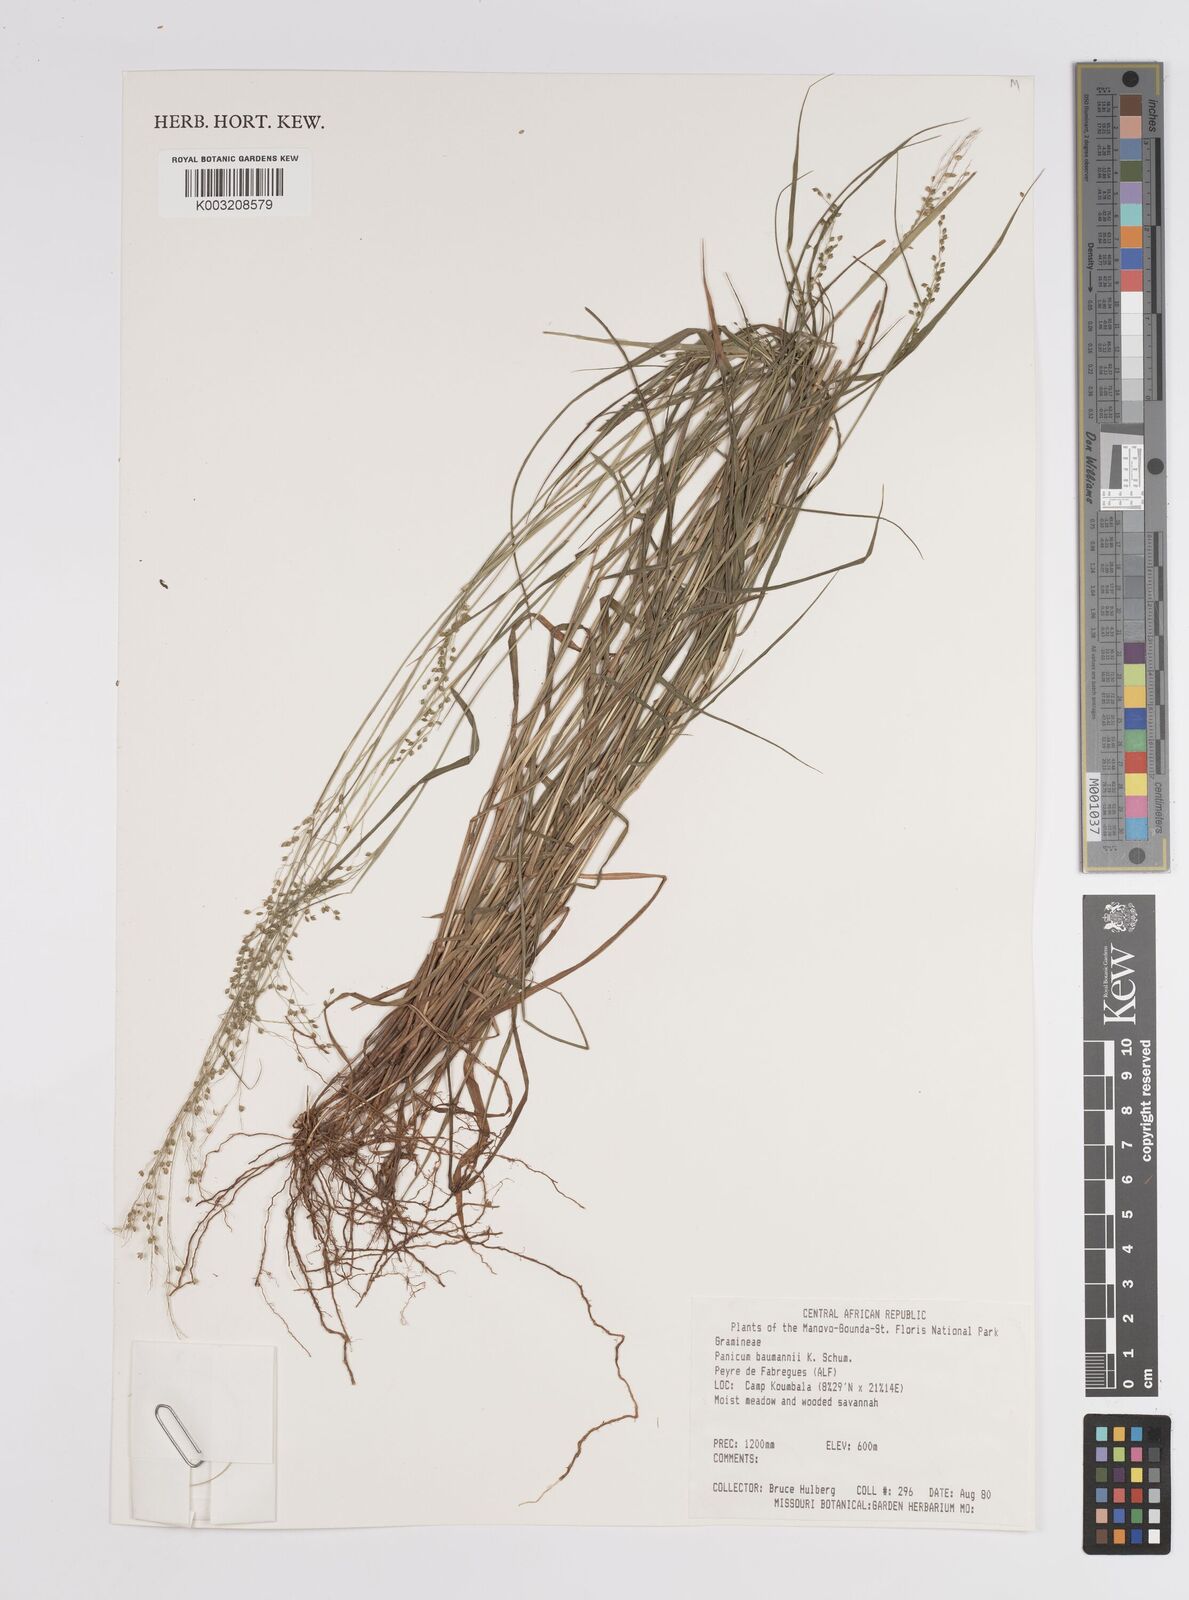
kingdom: Plantae
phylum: Tracheophyta
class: Liliopsida
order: Poales
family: Poaceae
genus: Trichanthecium
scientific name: Trichanthecium nervatum
